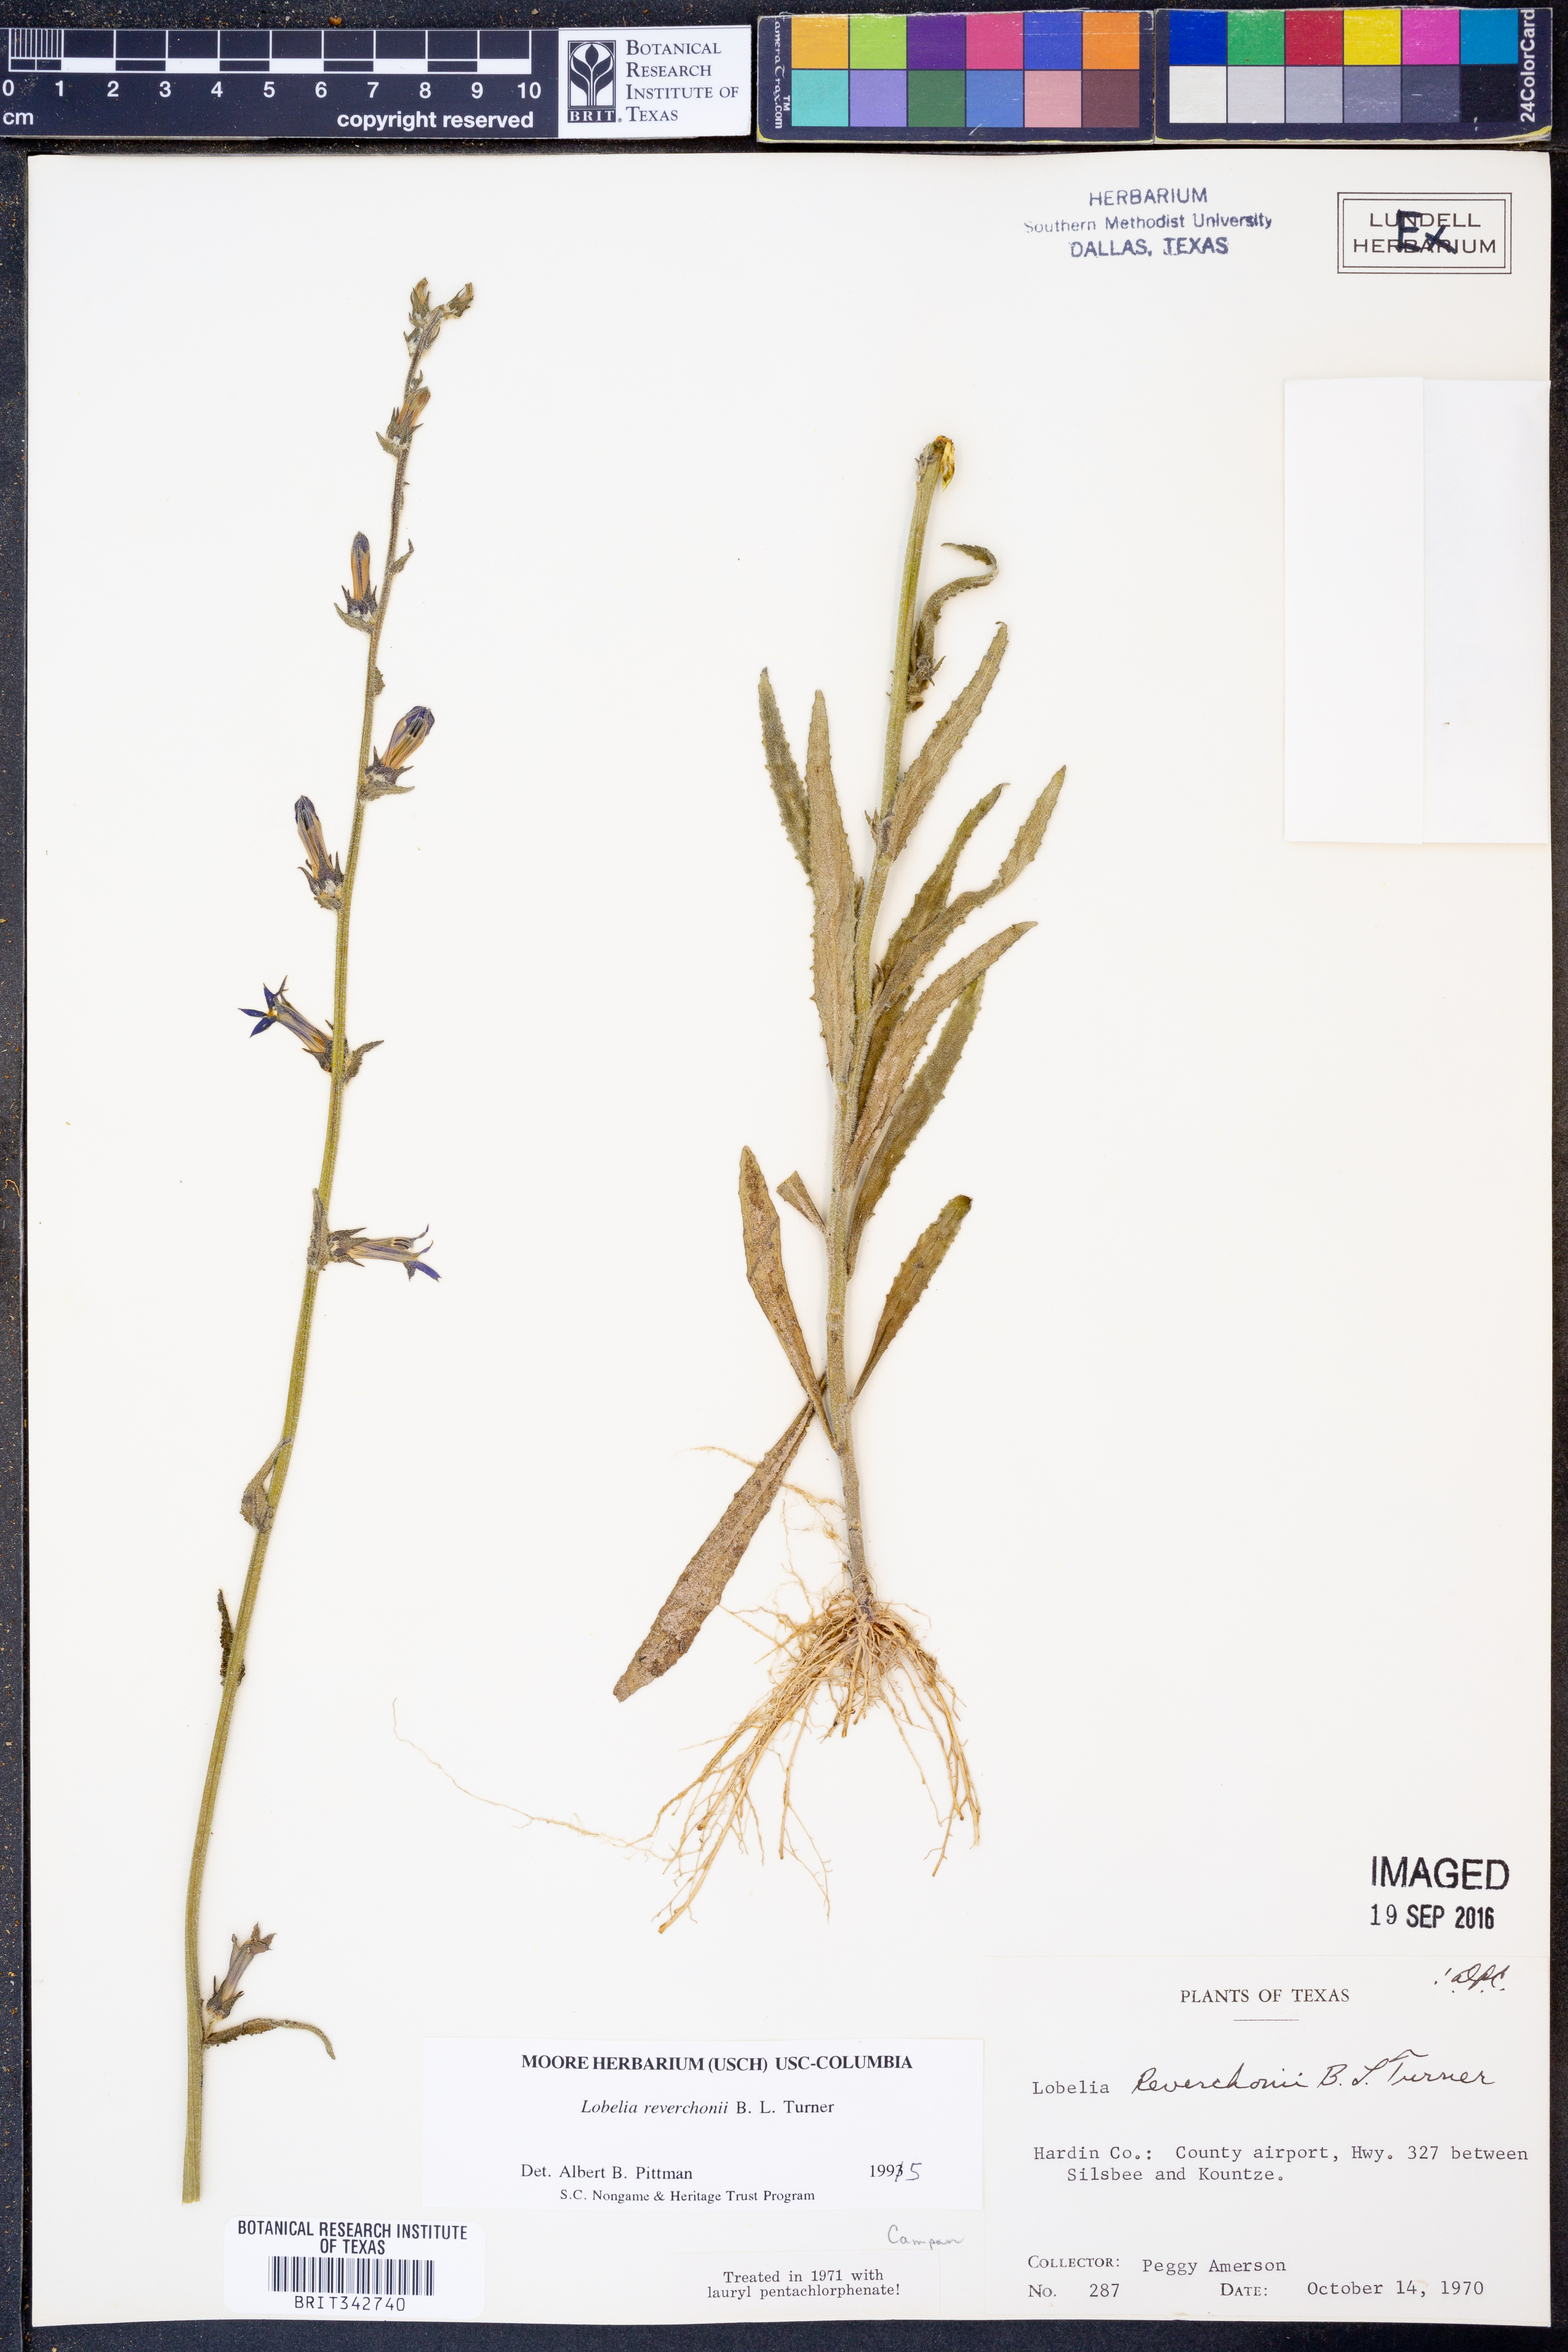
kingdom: Plantae
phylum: Tracheophyta
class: Magnoliopsida
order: Asterales
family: Campanulaceae
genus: Lobelia
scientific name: Lobelia reverchonii
